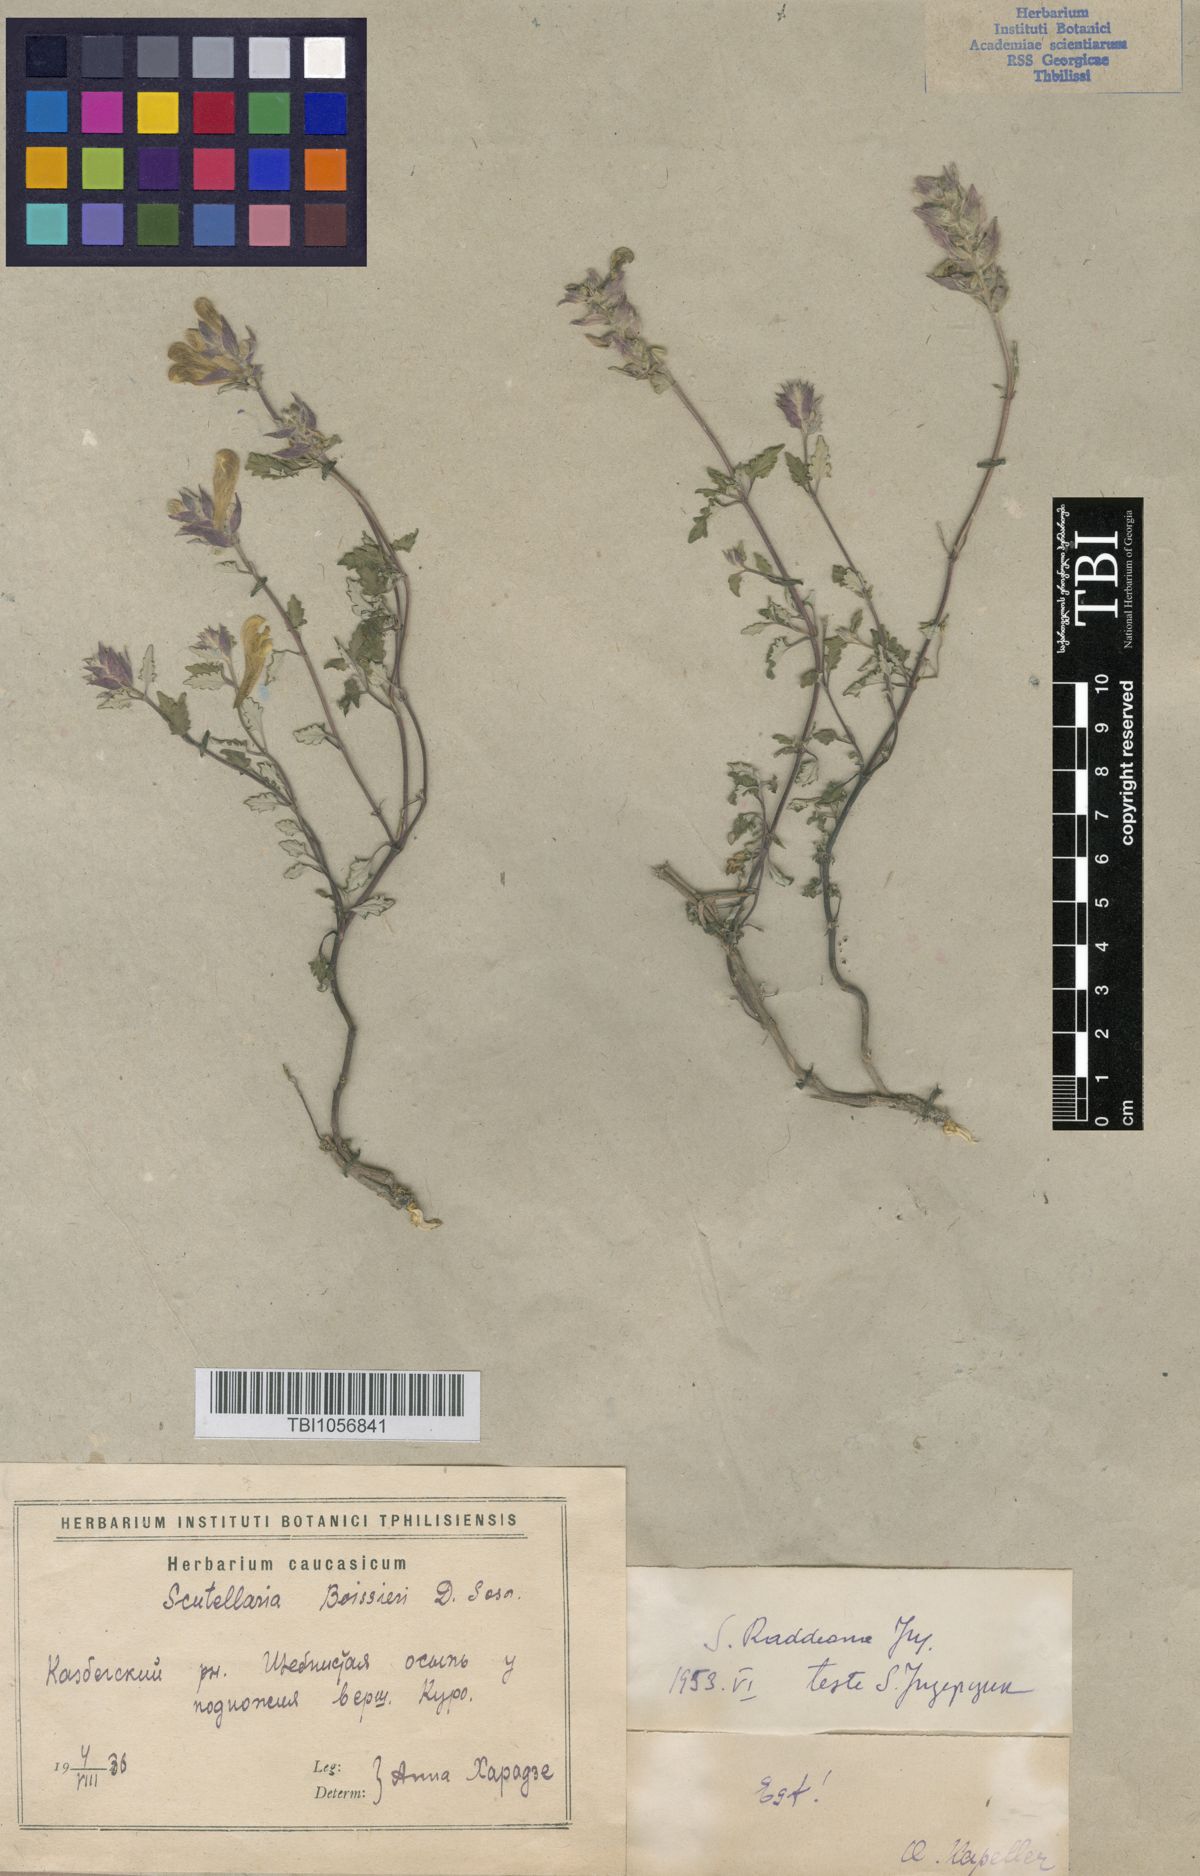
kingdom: Plantae
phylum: Tracheophyta
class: Magnoliopsida
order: Lamiales
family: Lamiaceae
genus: Scutellaria
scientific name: Scutellaria raddeana
